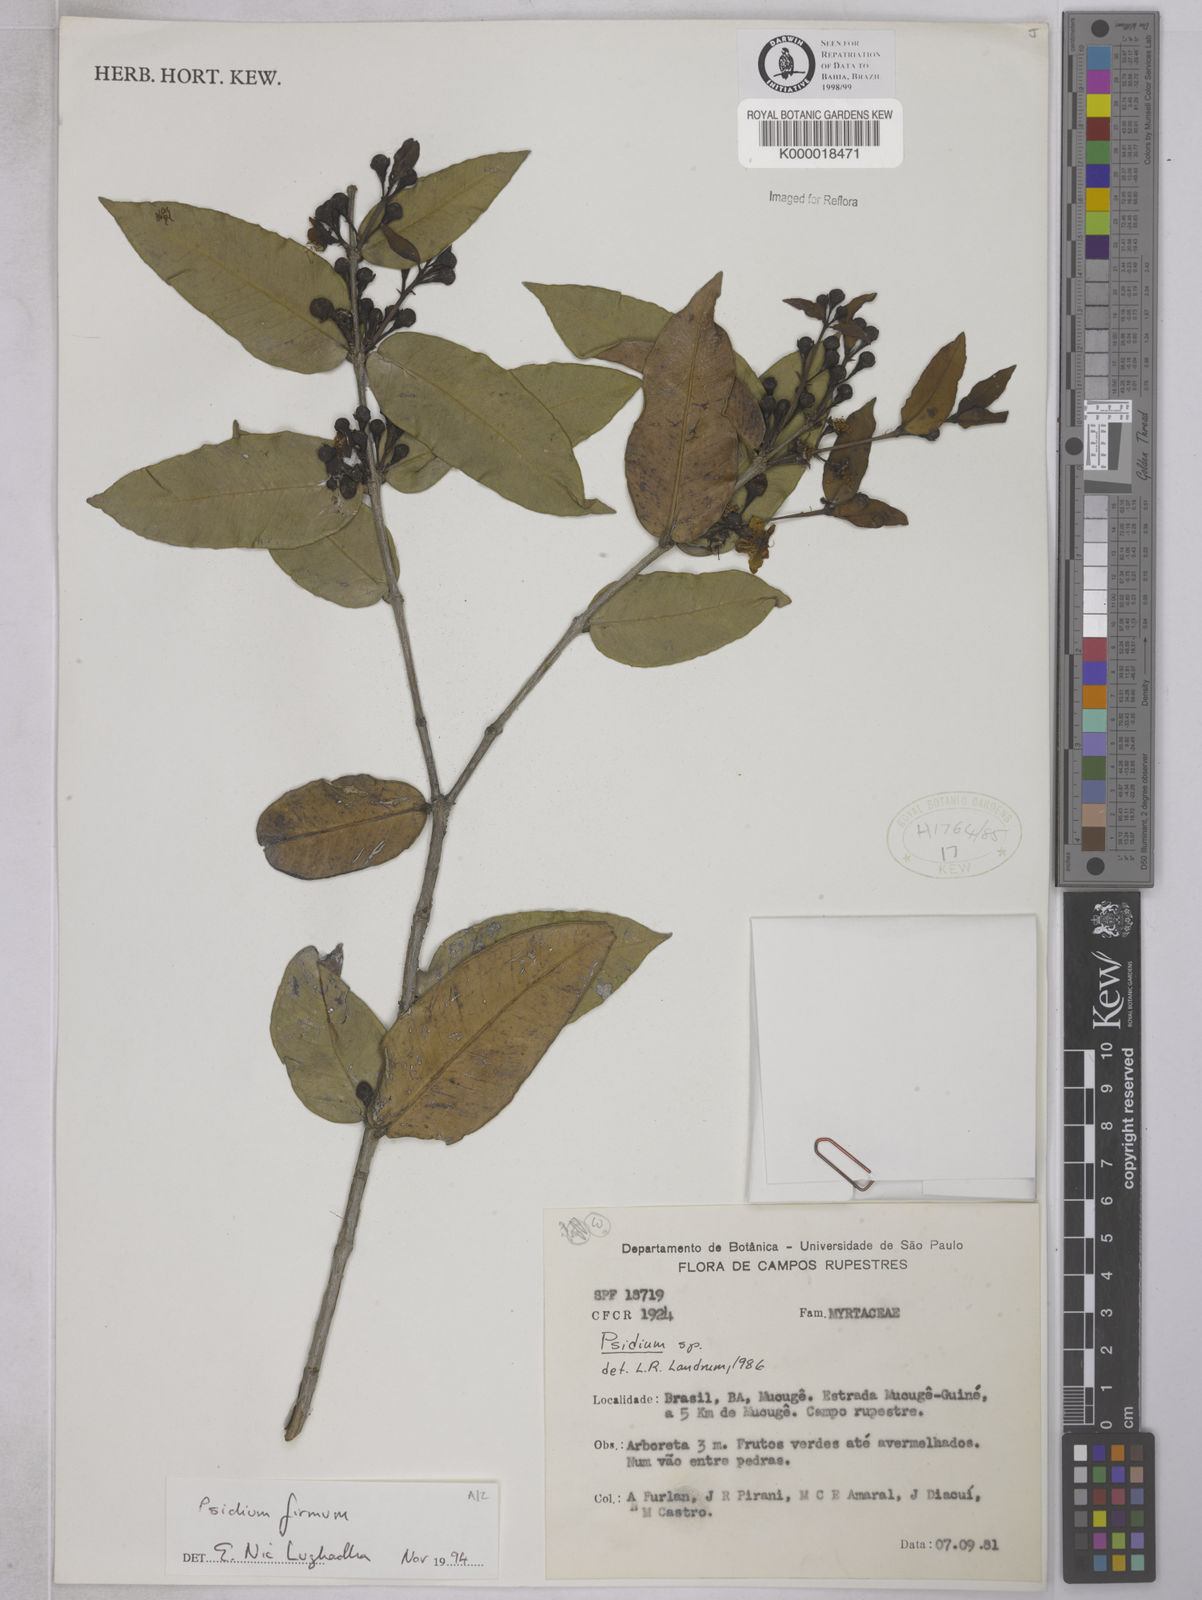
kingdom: Plantae
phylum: Tracheophyta
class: Magnoliopsida
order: Myrtales
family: Myrtaceae
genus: Psidium
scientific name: Psidium firmum
